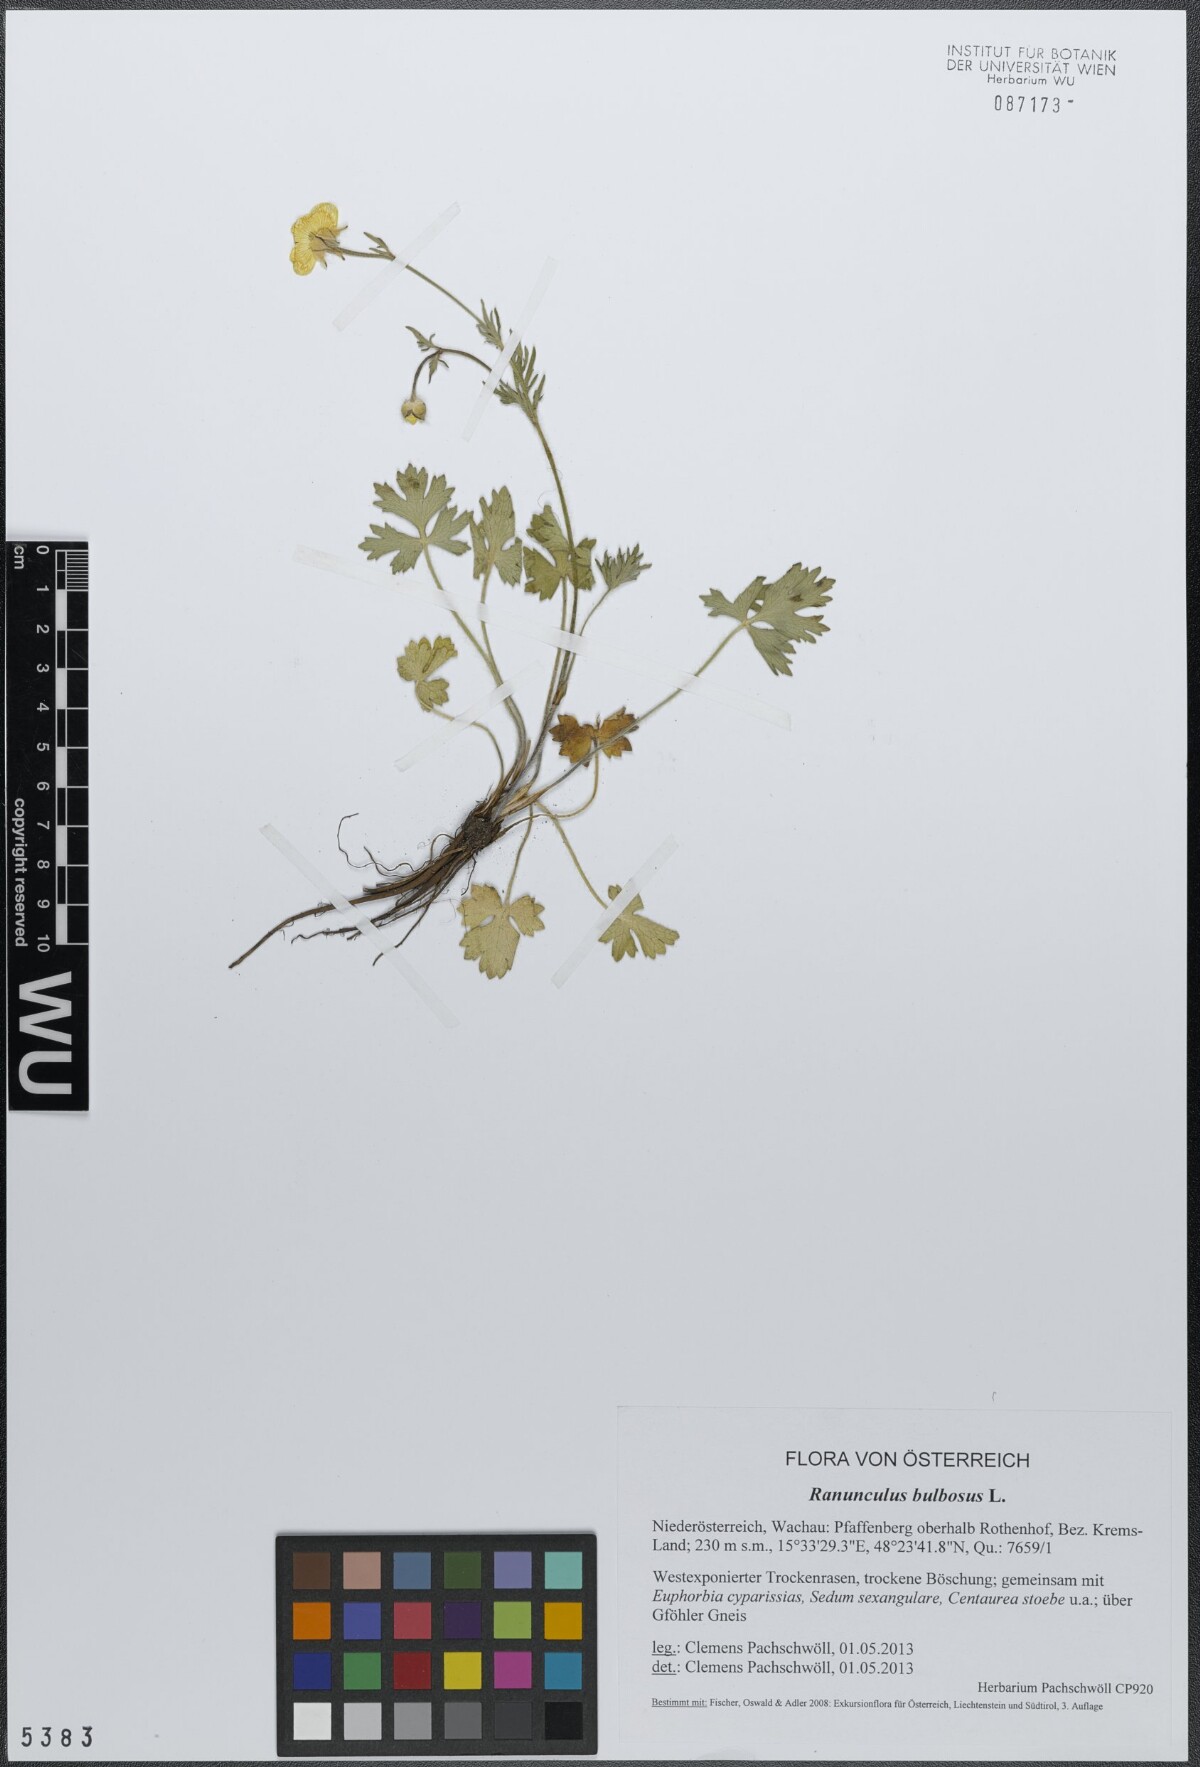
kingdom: Plantae
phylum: Tracheophyta
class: Magnoliopsida
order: Ranunculales
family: Ranunculaceae
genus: Ranunculus
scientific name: Ranunculus bulbosus
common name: Bulbous buttercup
